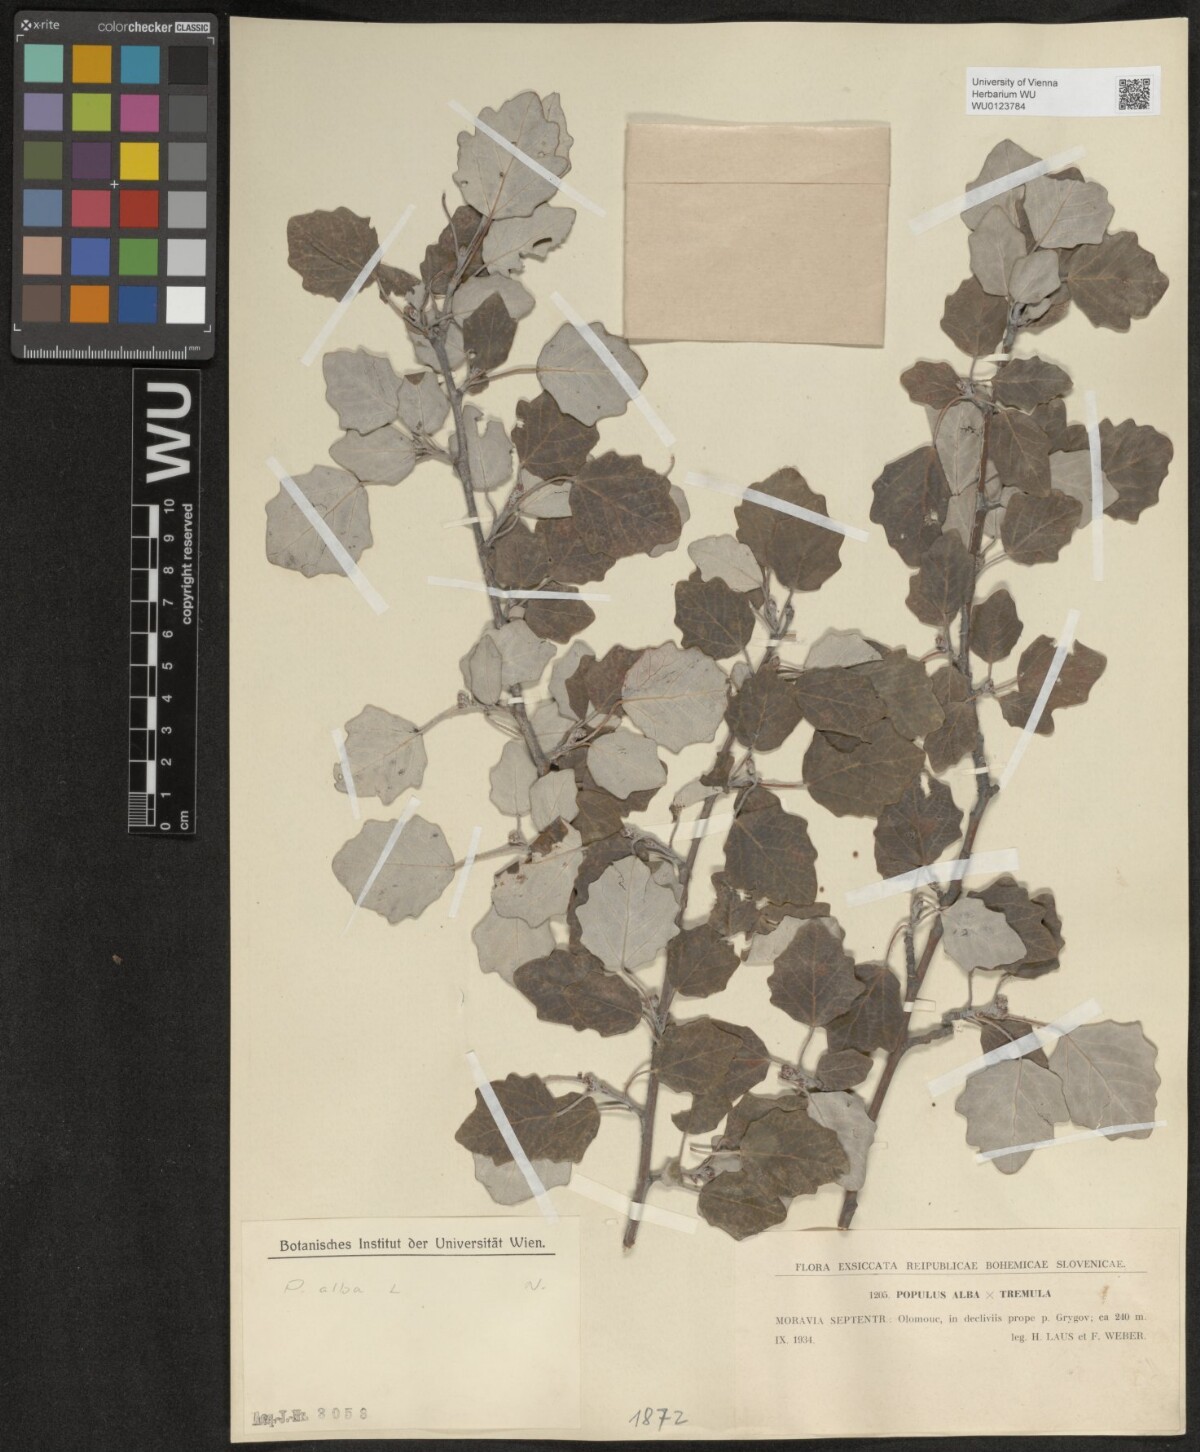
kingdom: Plantae
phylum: Tracheophyta
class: Magnoliopsida
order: Malpighiales
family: Salicaceae
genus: Populus
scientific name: Populus alba
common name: White poplar
